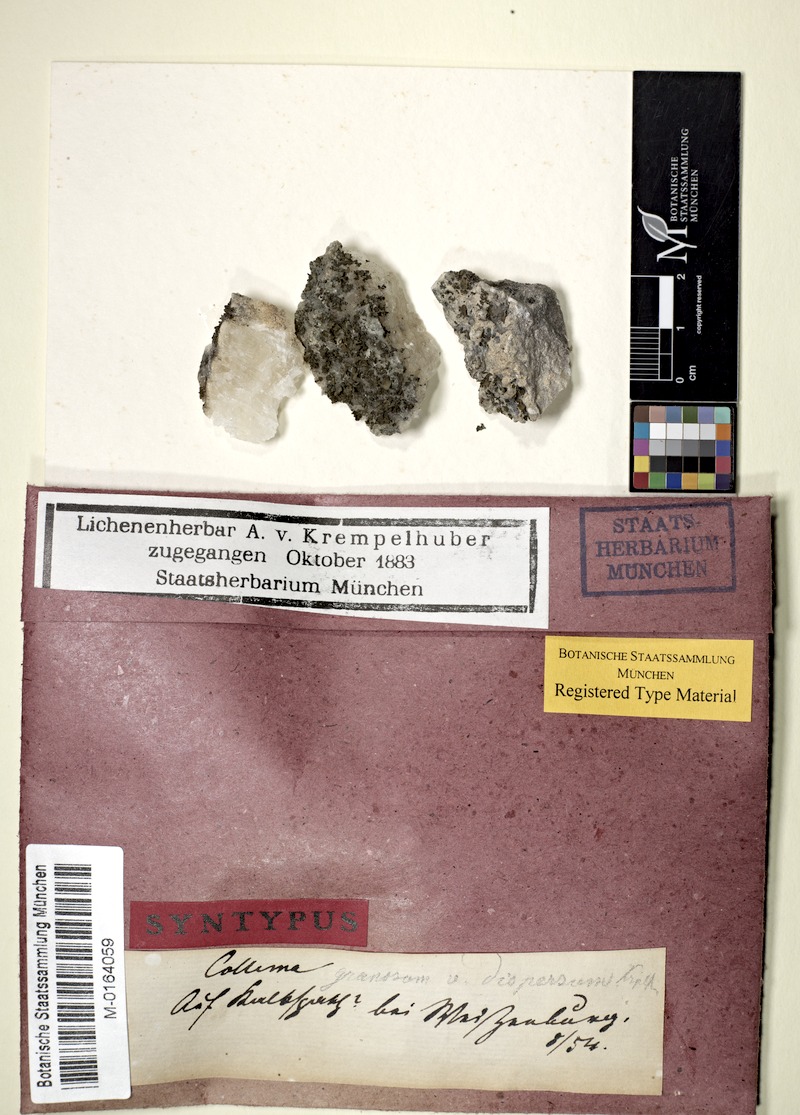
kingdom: Fungi
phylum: Ascomycota
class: Lecanoromycetes
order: Peltigerales
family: Collemataceae
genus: Lathagrium
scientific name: Lathagrium fuscovirens
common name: Crumpled rock tarpaper lichen
